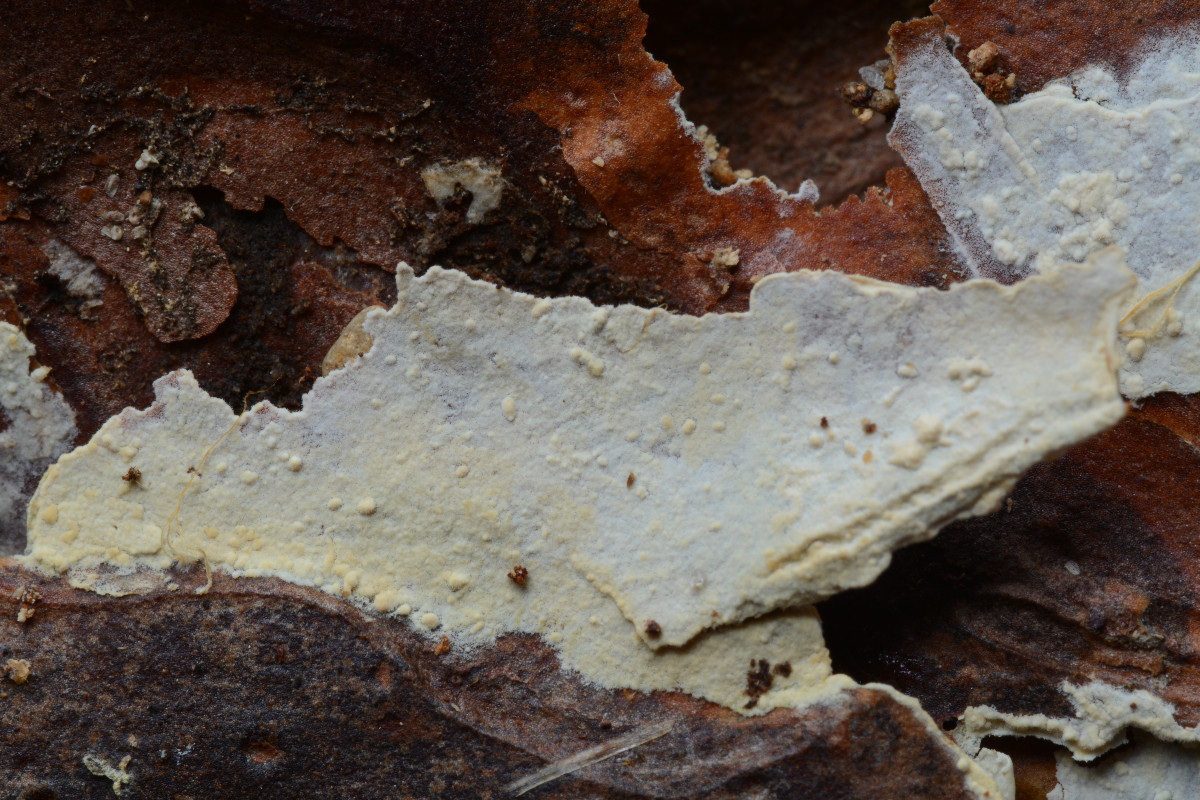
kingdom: Fungi
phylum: Basidiomycota
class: Agaricomycetes
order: Hymenochaetales
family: Hyphodontiaceae
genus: Hyphodontia
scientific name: Hyphodontia alutaria
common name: flaskerenser-nålehinde
